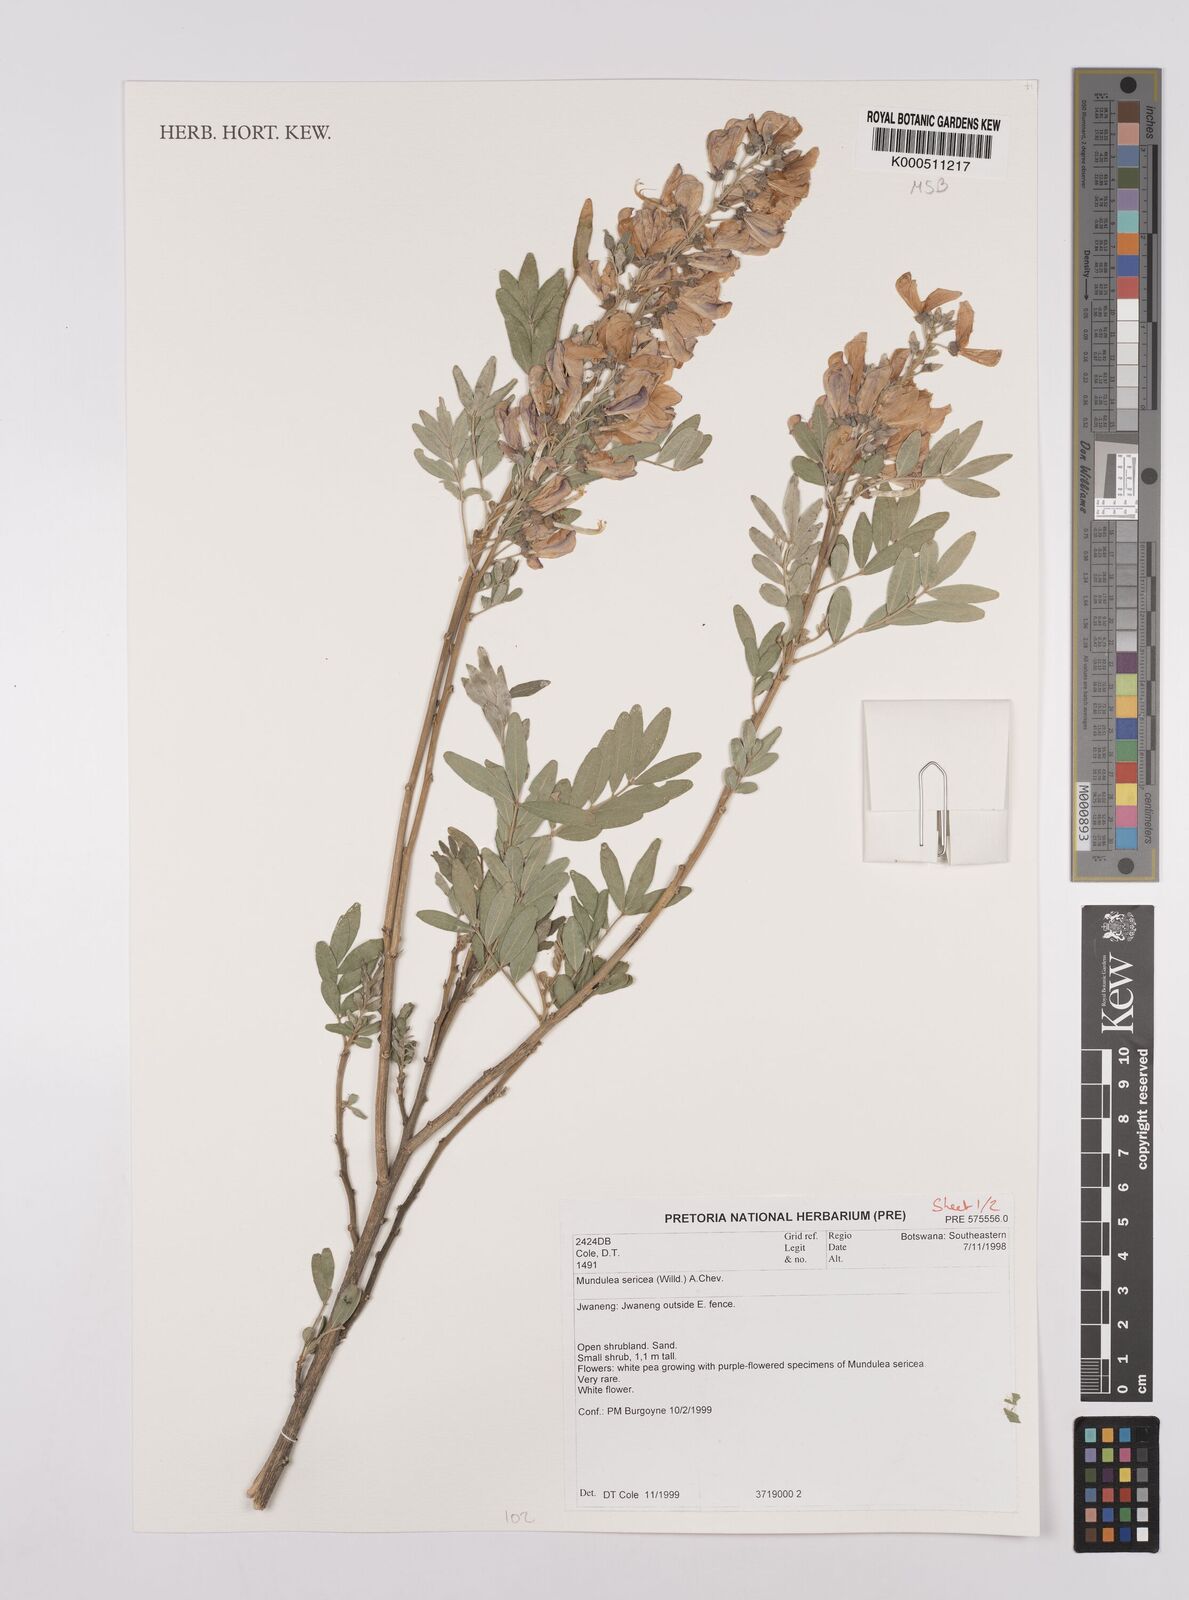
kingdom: Plantae
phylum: Tracheophyta
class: Magnoliopsida
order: Fabales
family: Fabaceae
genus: Mundulea
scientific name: Mundulea sericea
